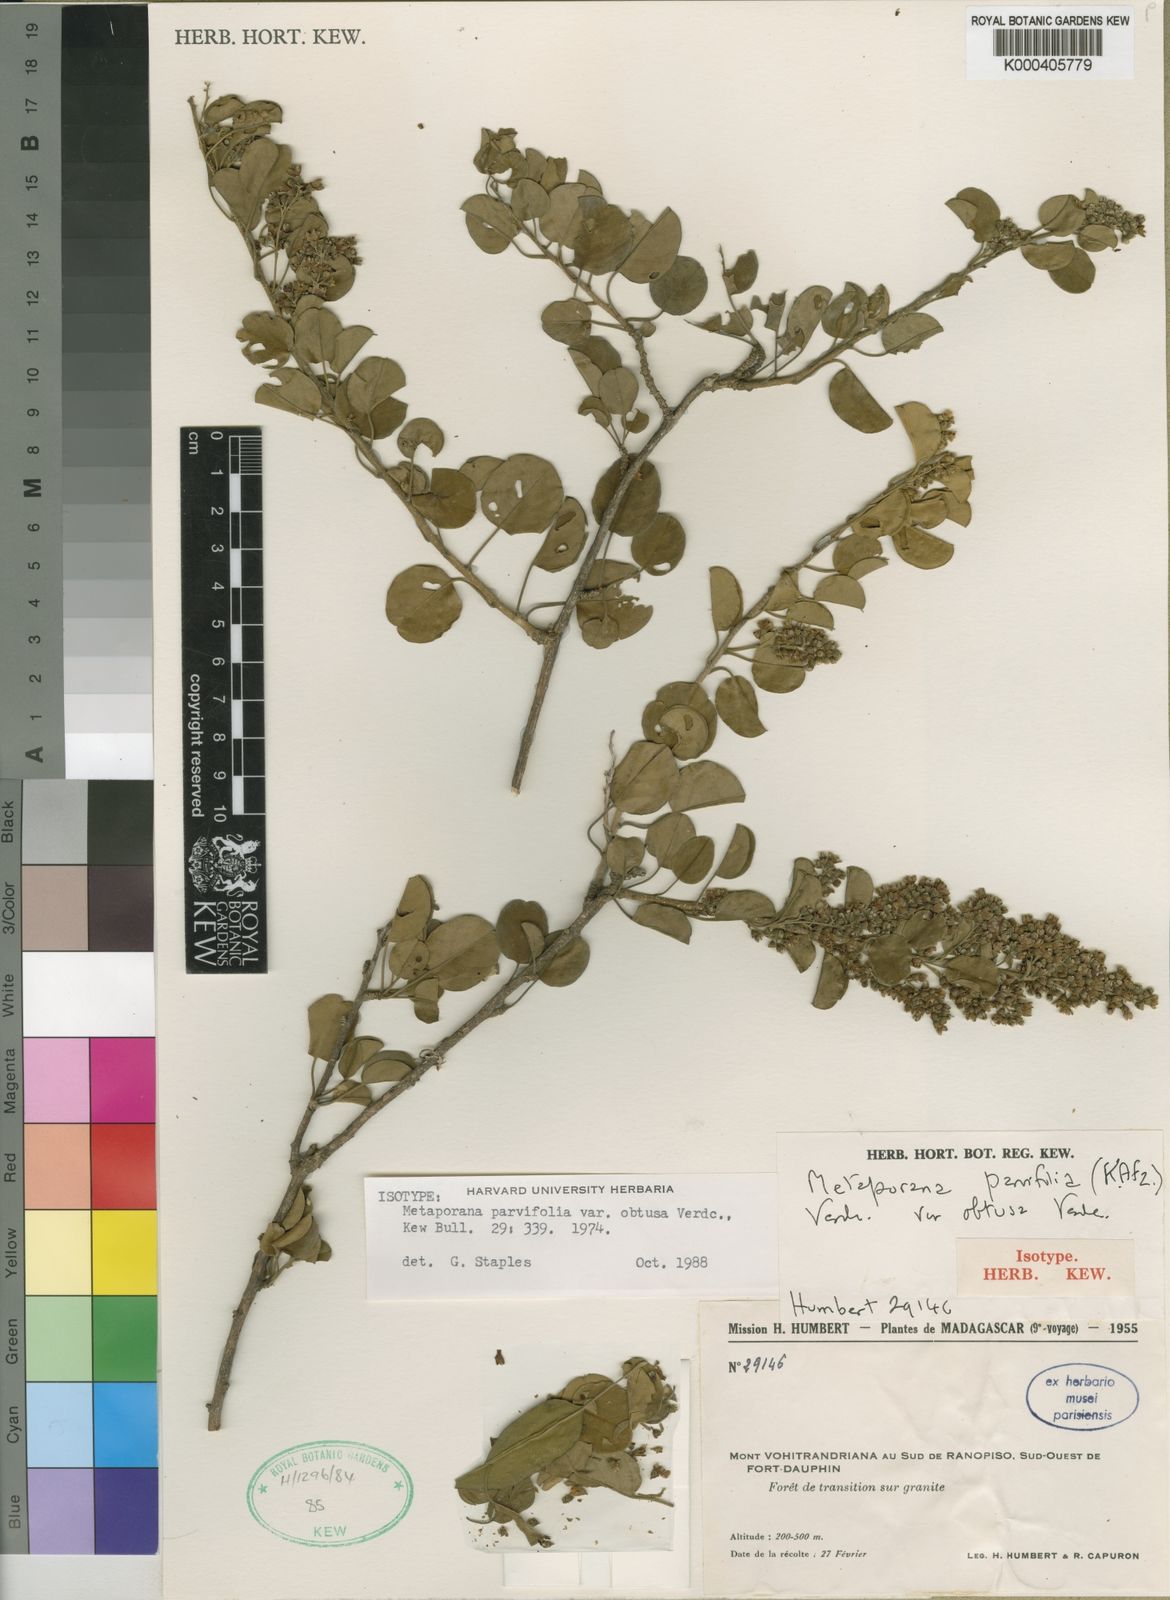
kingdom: Plantae
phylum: Tracheophyta
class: Magnoliopsida
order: Solanales
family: Convolvulaceae
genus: Metaporana
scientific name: Metaporana parvifolia
